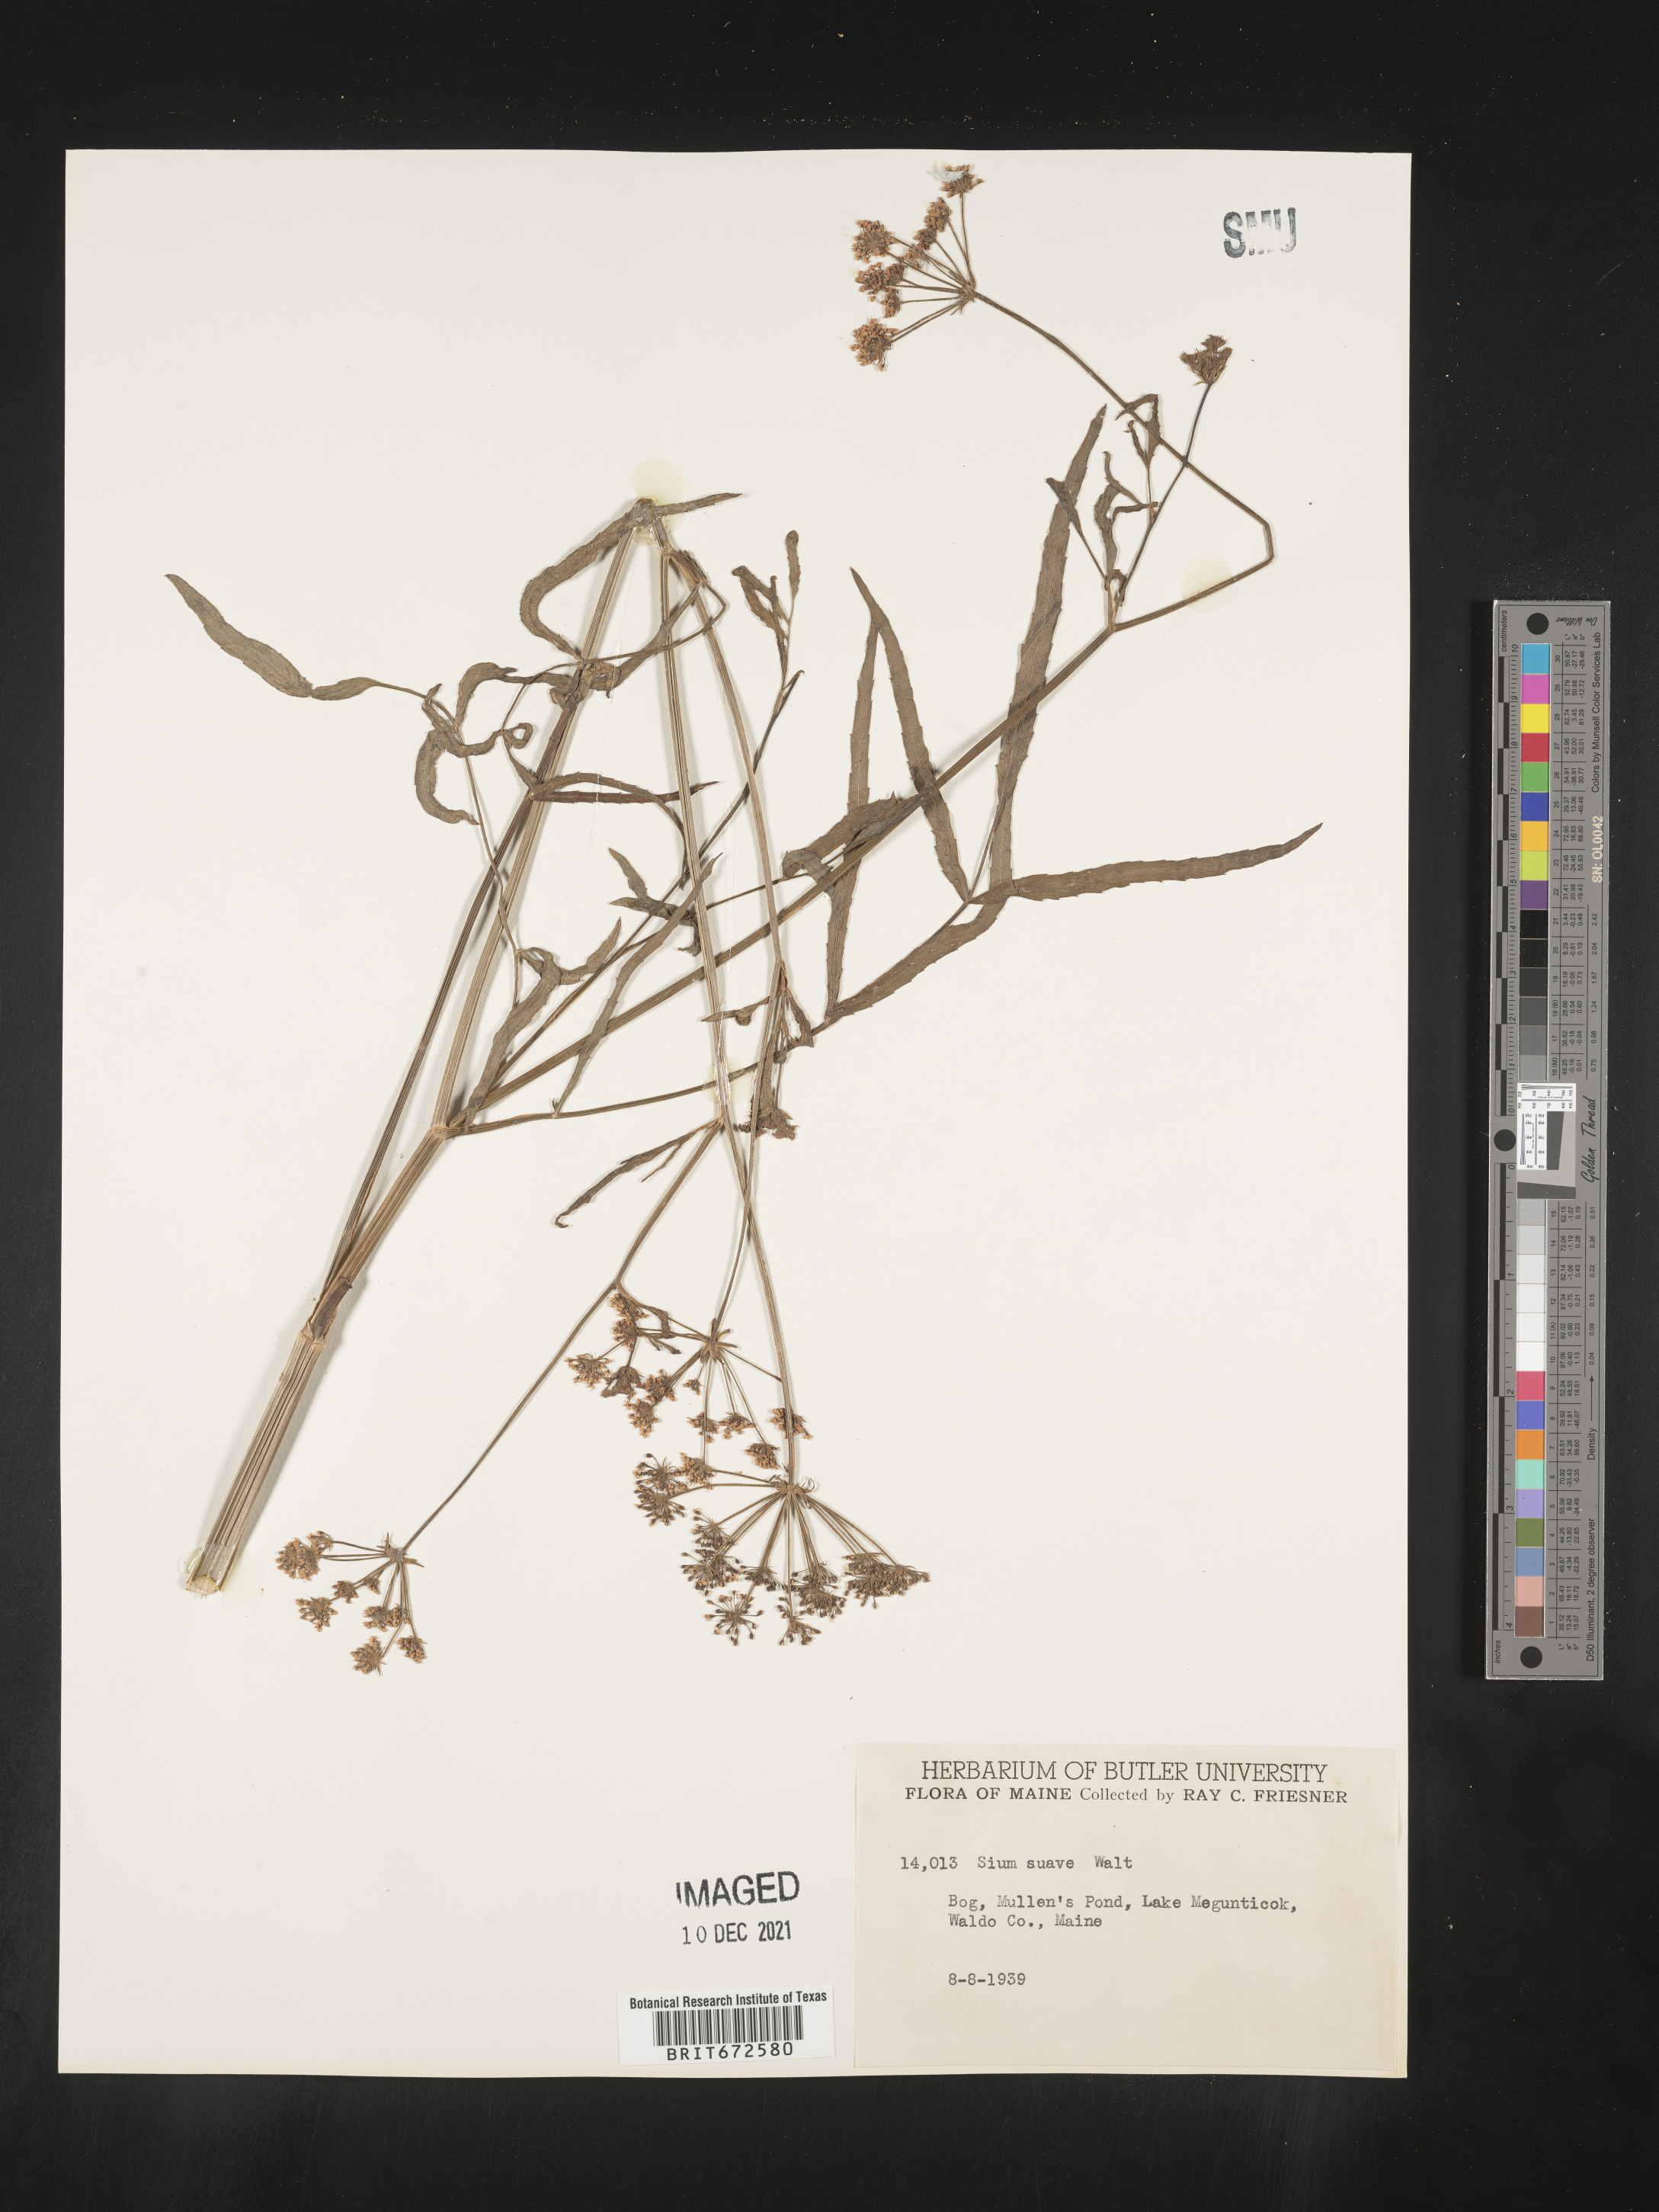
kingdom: Plantae
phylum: Tracheophyta
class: Magnoliopsida
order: Apiales
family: Apiaceae
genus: Sium
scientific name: Sium suave
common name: Hemlock water-parsnip
